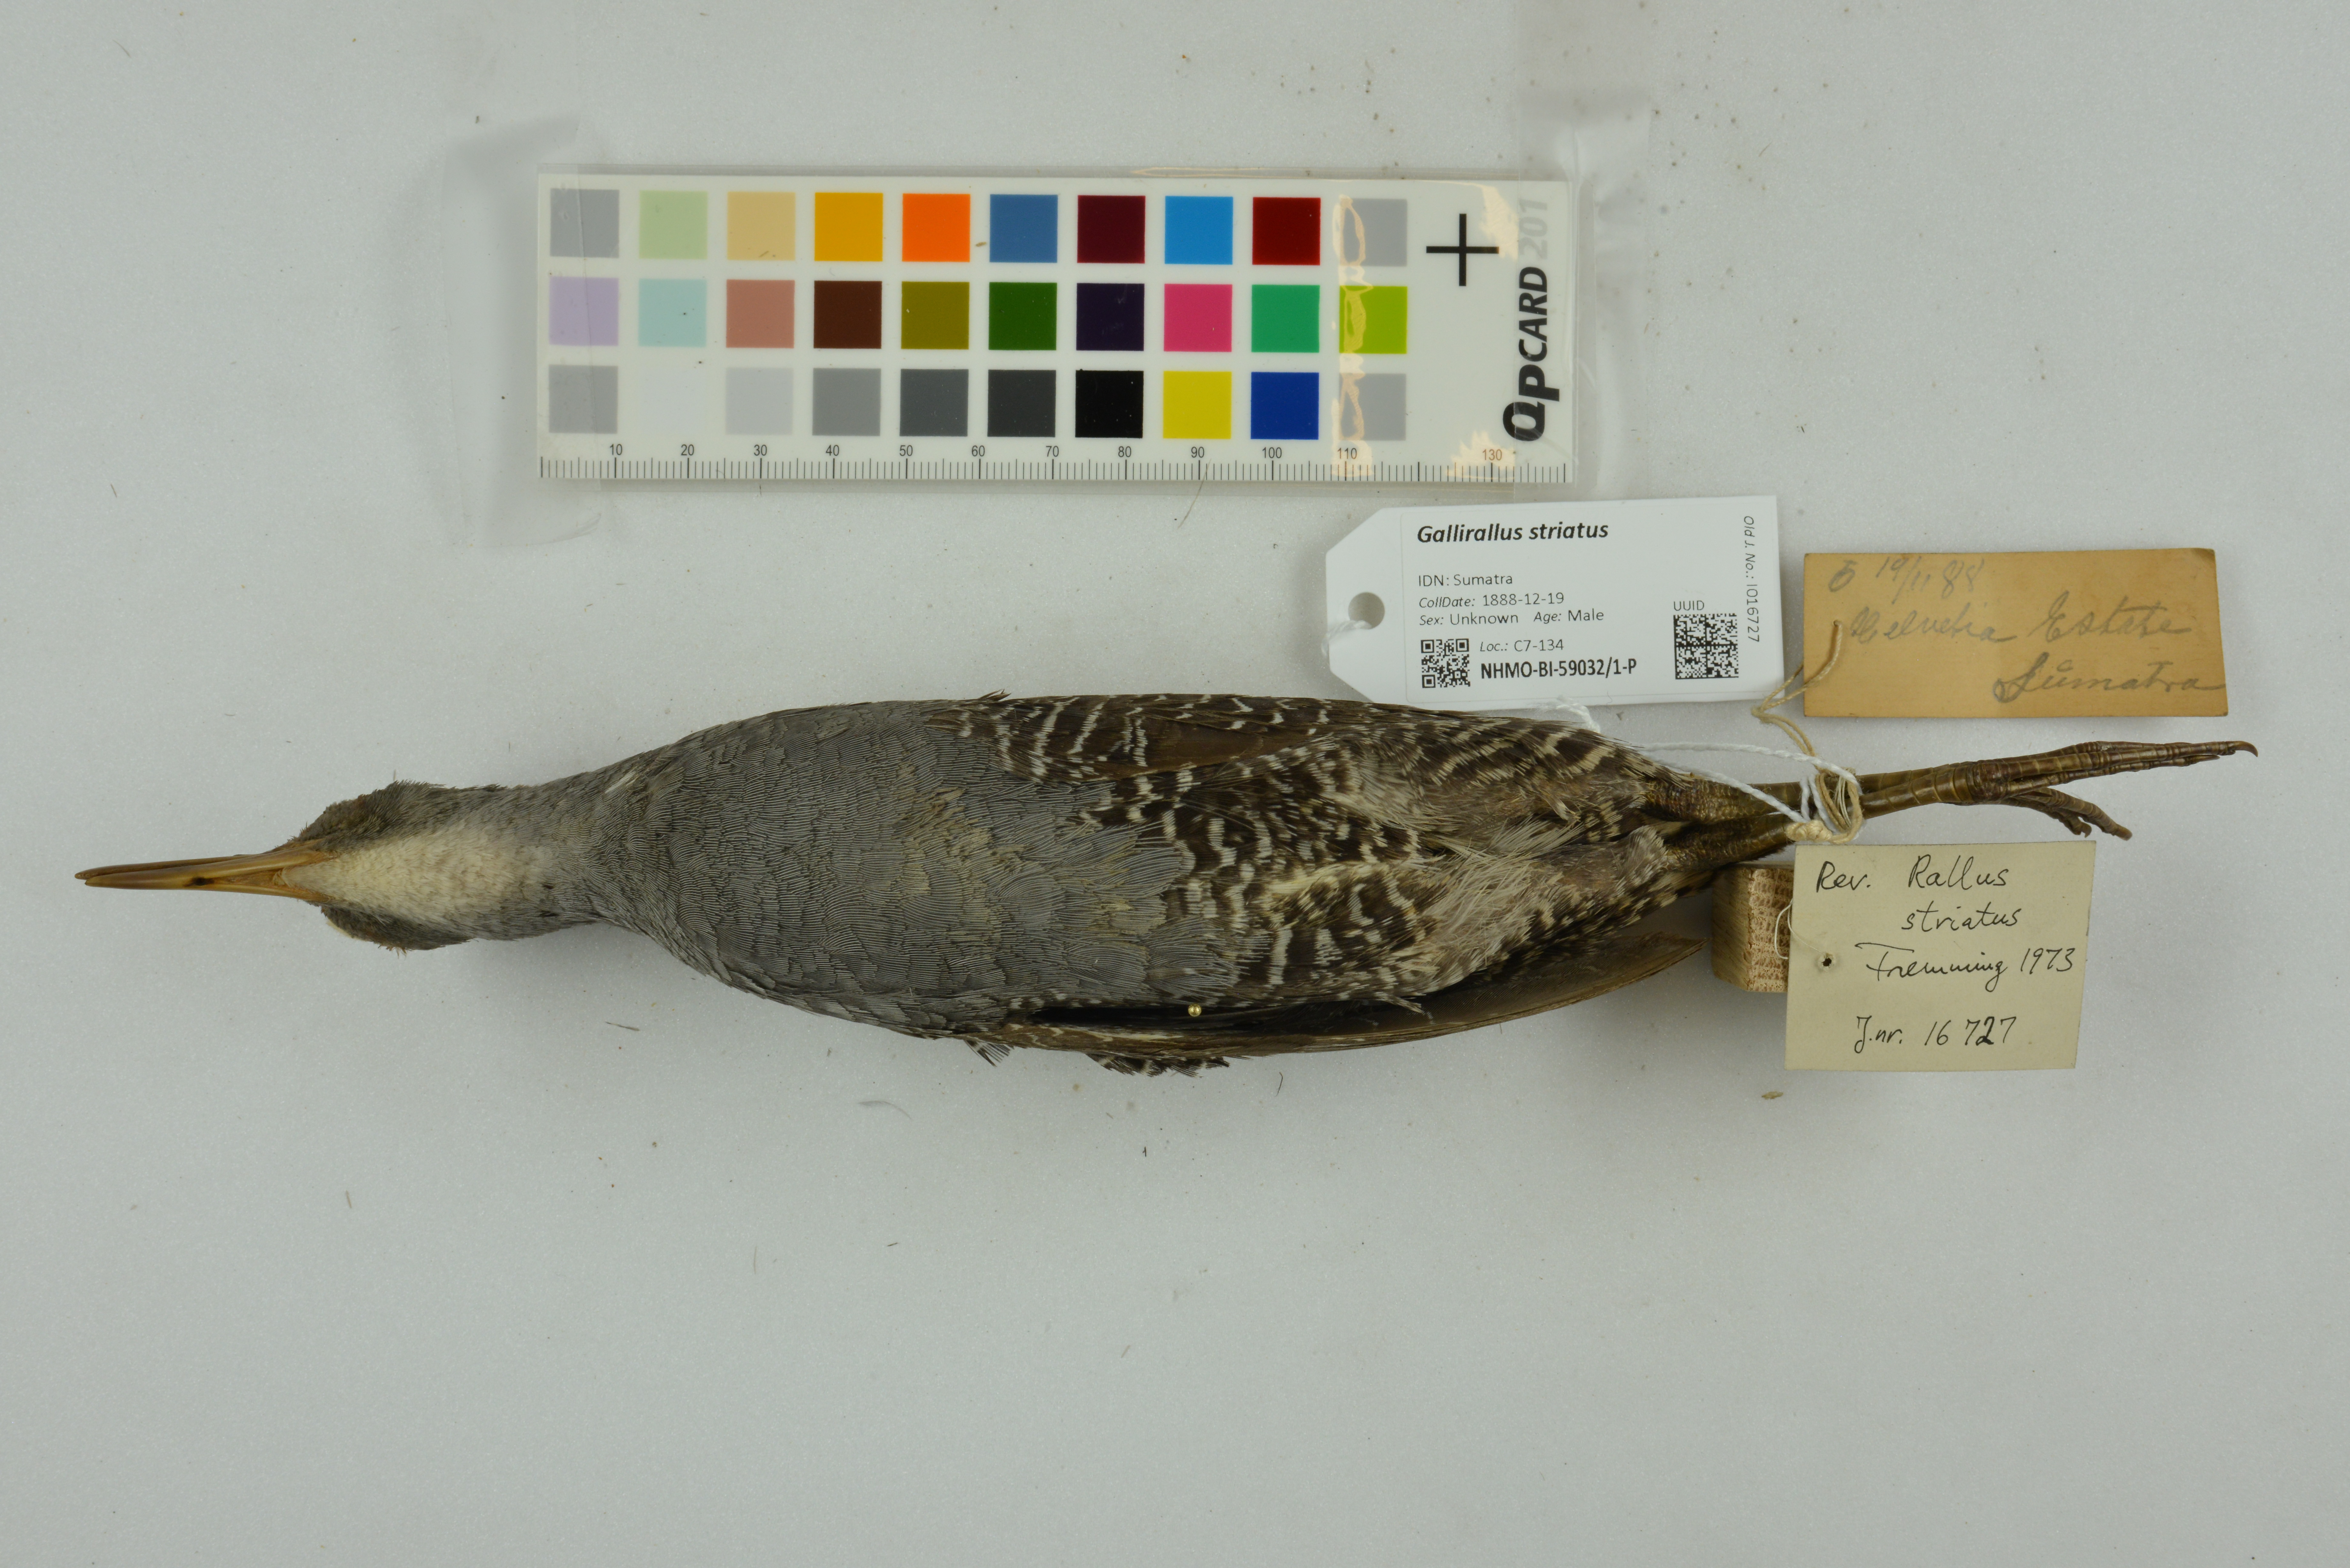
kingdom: Animalia
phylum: Chordata
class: Aves
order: Gruiformes
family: Rallidae
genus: Gallirallus
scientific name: Gallirallus striatus
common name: Slaty-breasted rail
